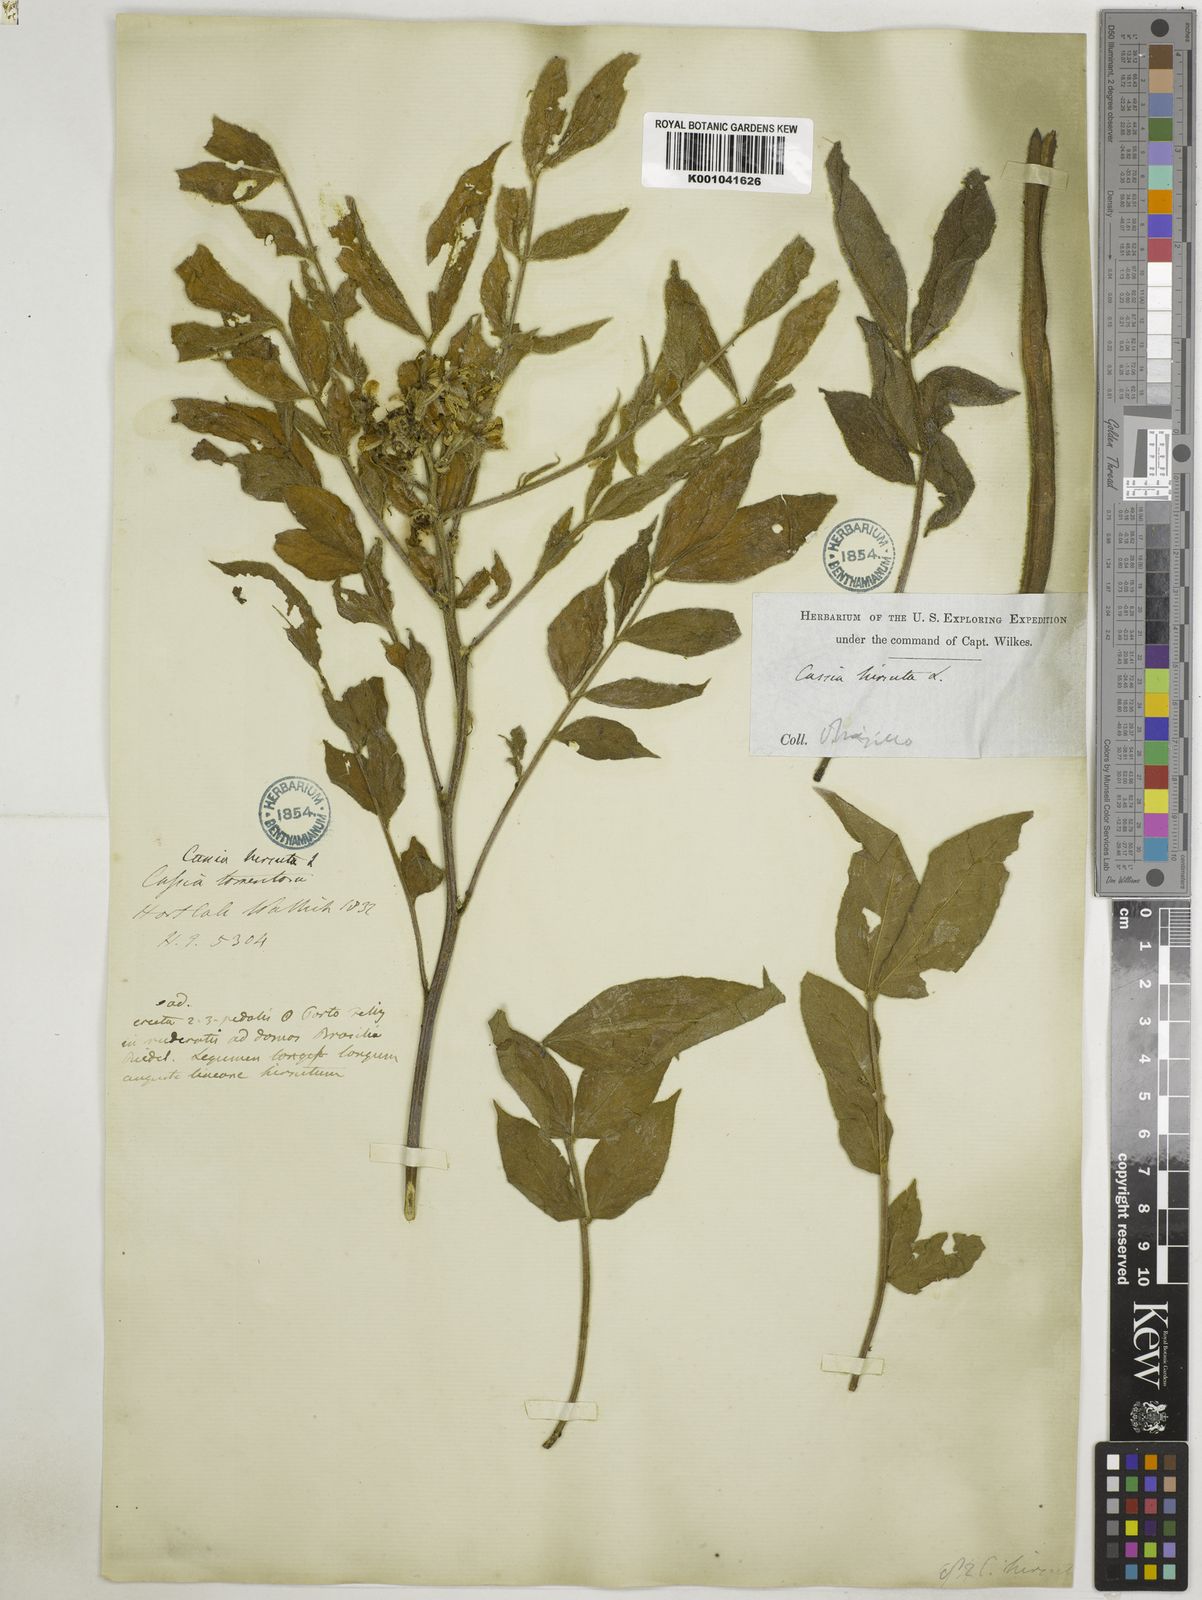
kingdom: Plantae
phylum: Tracheophyta
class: Magnoliopsida
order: Fabales
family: Fabaceae
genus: Senna
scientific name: Senna hirsuta
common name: Woolly senna
